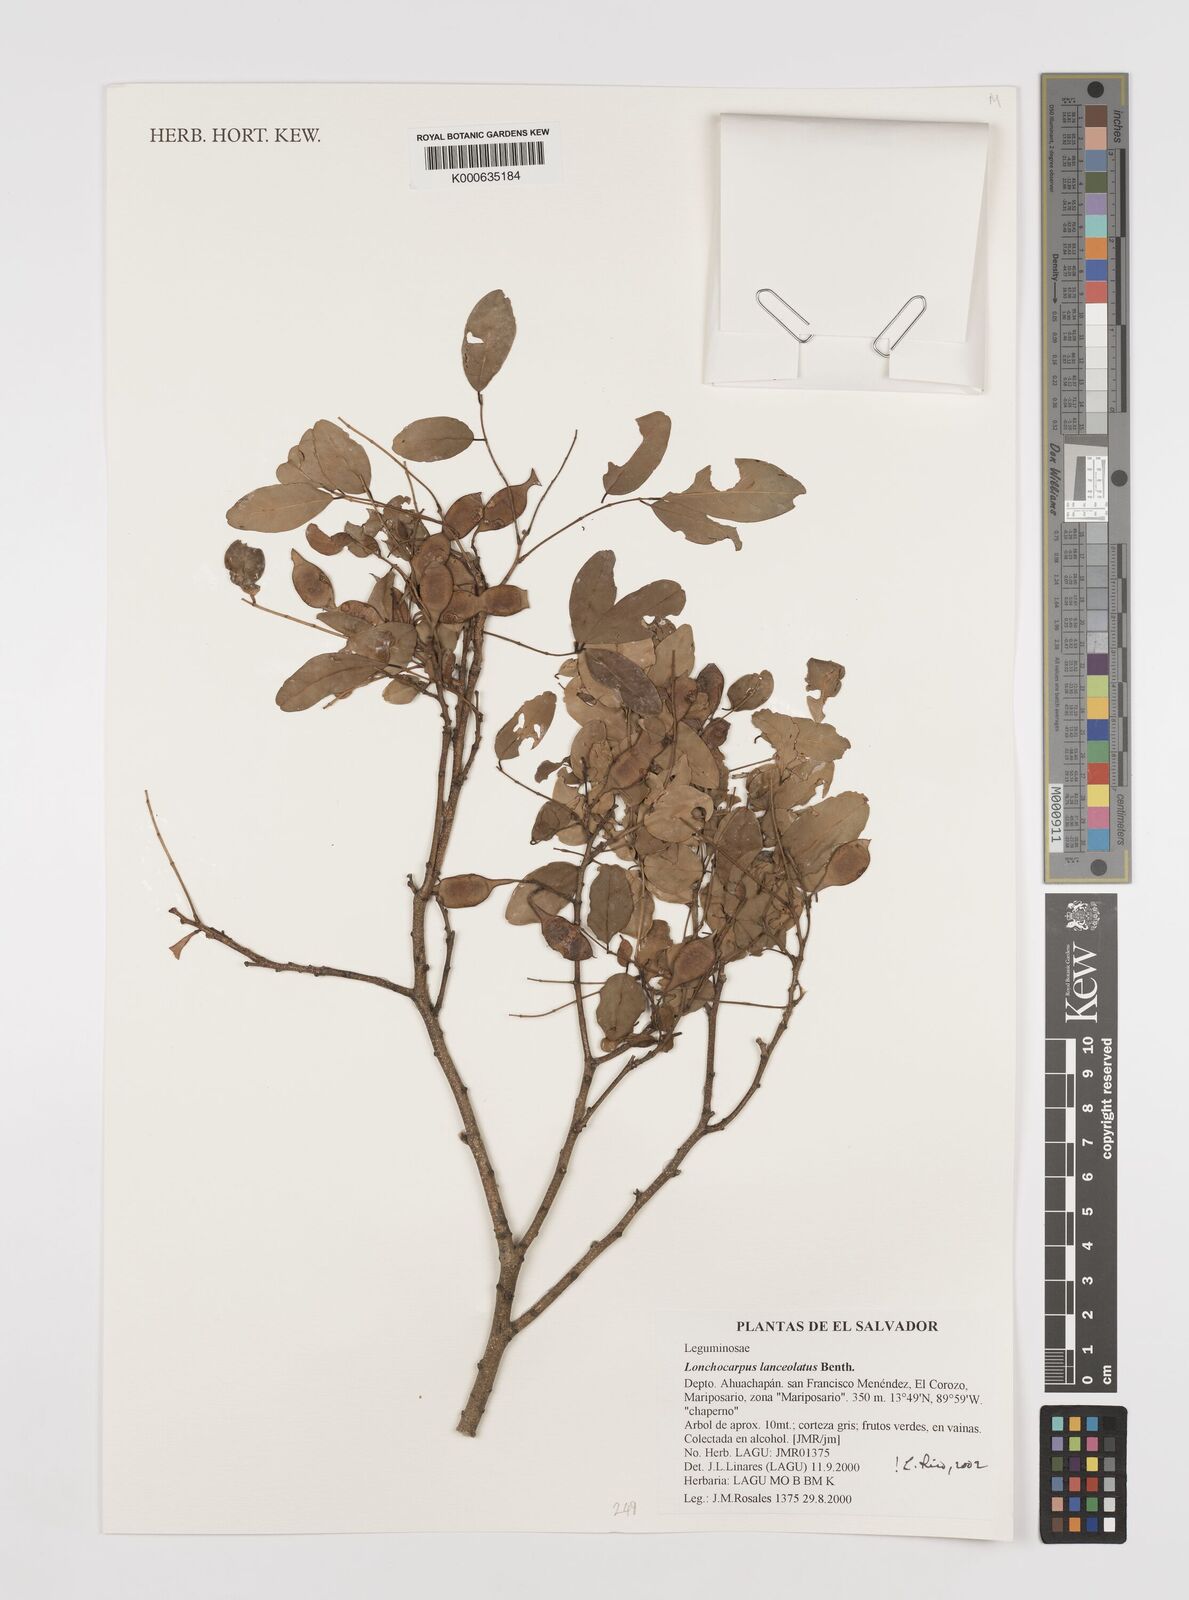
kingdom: Plantae
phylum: Tracheophyta
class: Magnoliopsida
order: Fabales
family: Fabaceae
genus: Lonchocarpus
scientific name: Lonchocarpus lanceolatus
